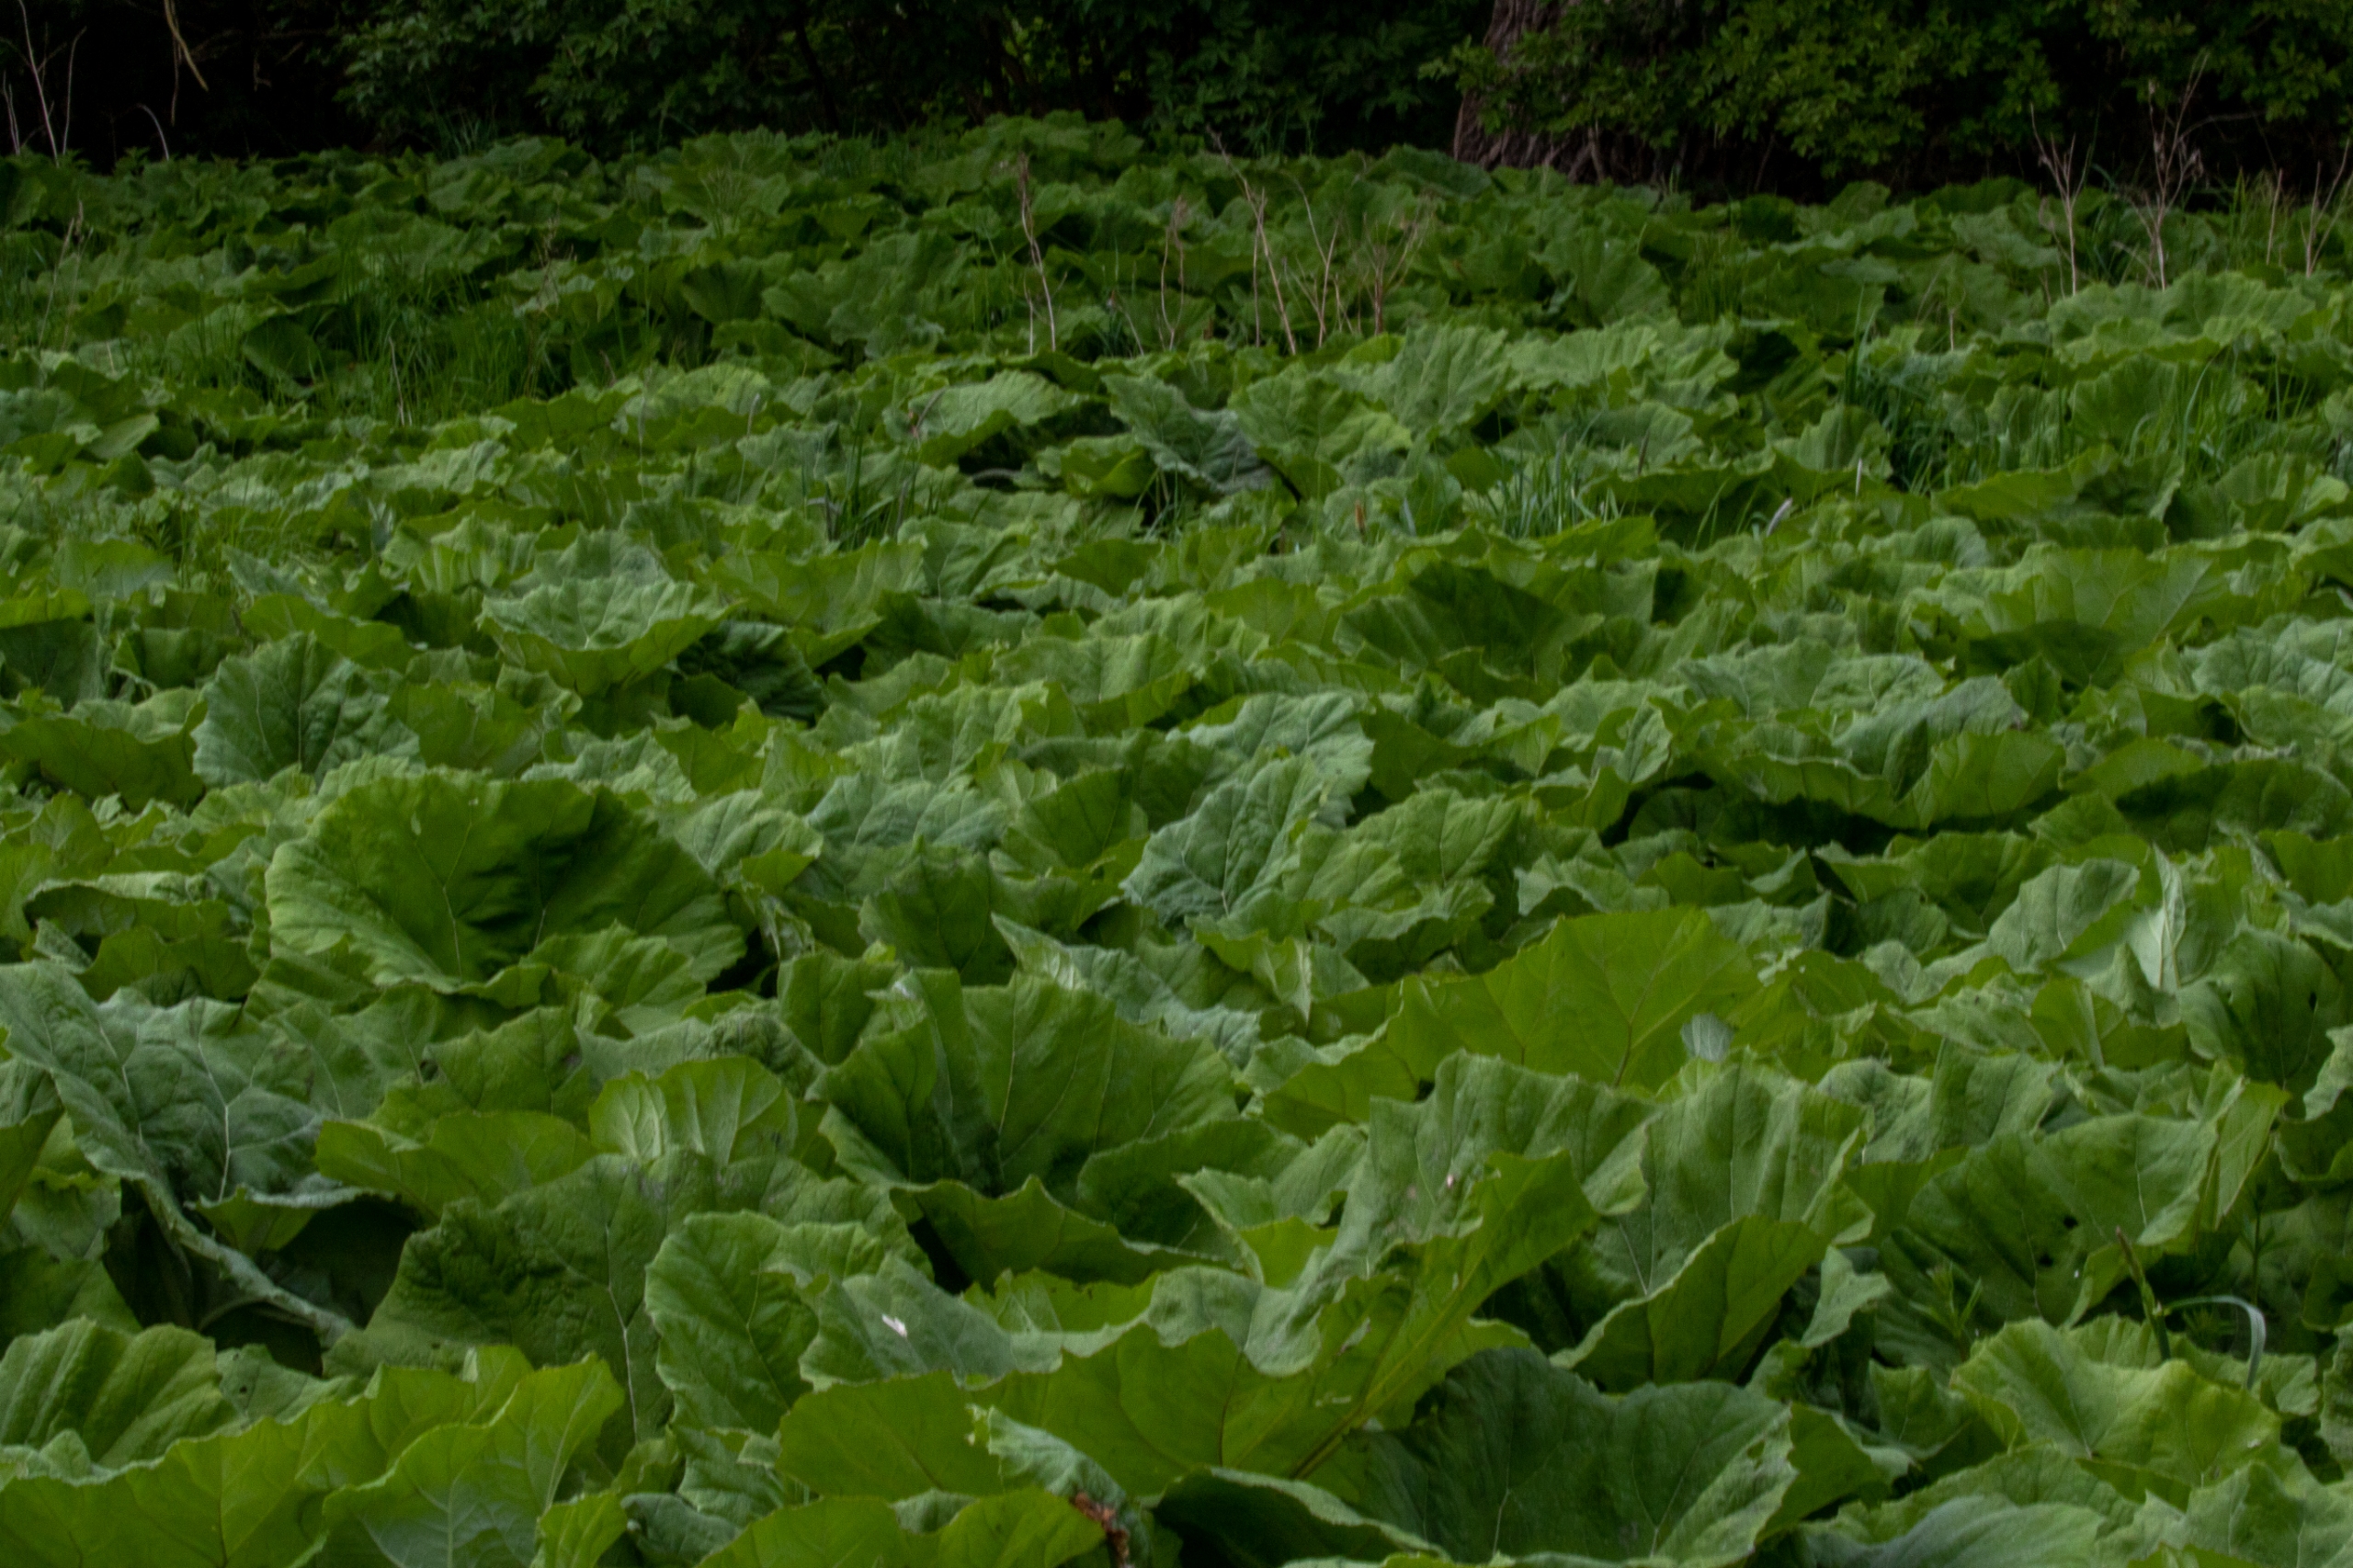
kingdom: Plantae
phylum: Tracheophyta
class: Magnoliopsida
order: Asterales
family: Asteraceae
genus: Petasites
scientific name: Petasites hybridus
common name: Rød hestehov
